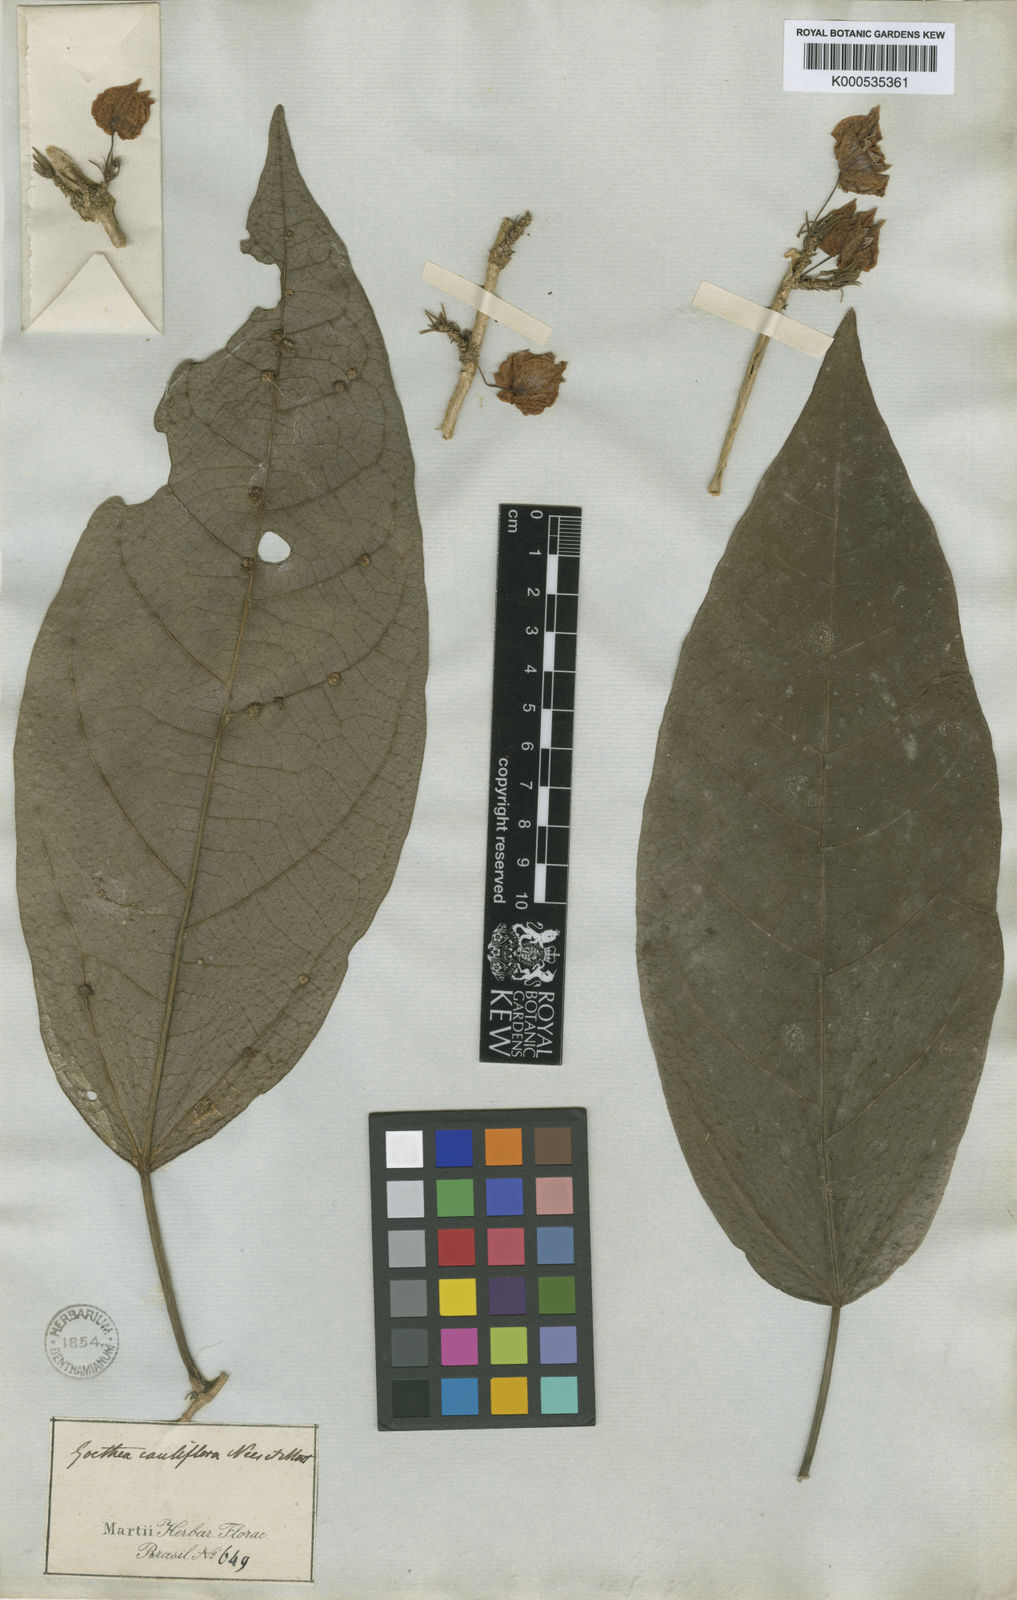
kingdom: Plantae
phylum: Tracheophyta
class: Magnoliopsida
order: Malvales
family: Malvaceae
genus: Pavonia
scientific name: Pavonia cauliflora
